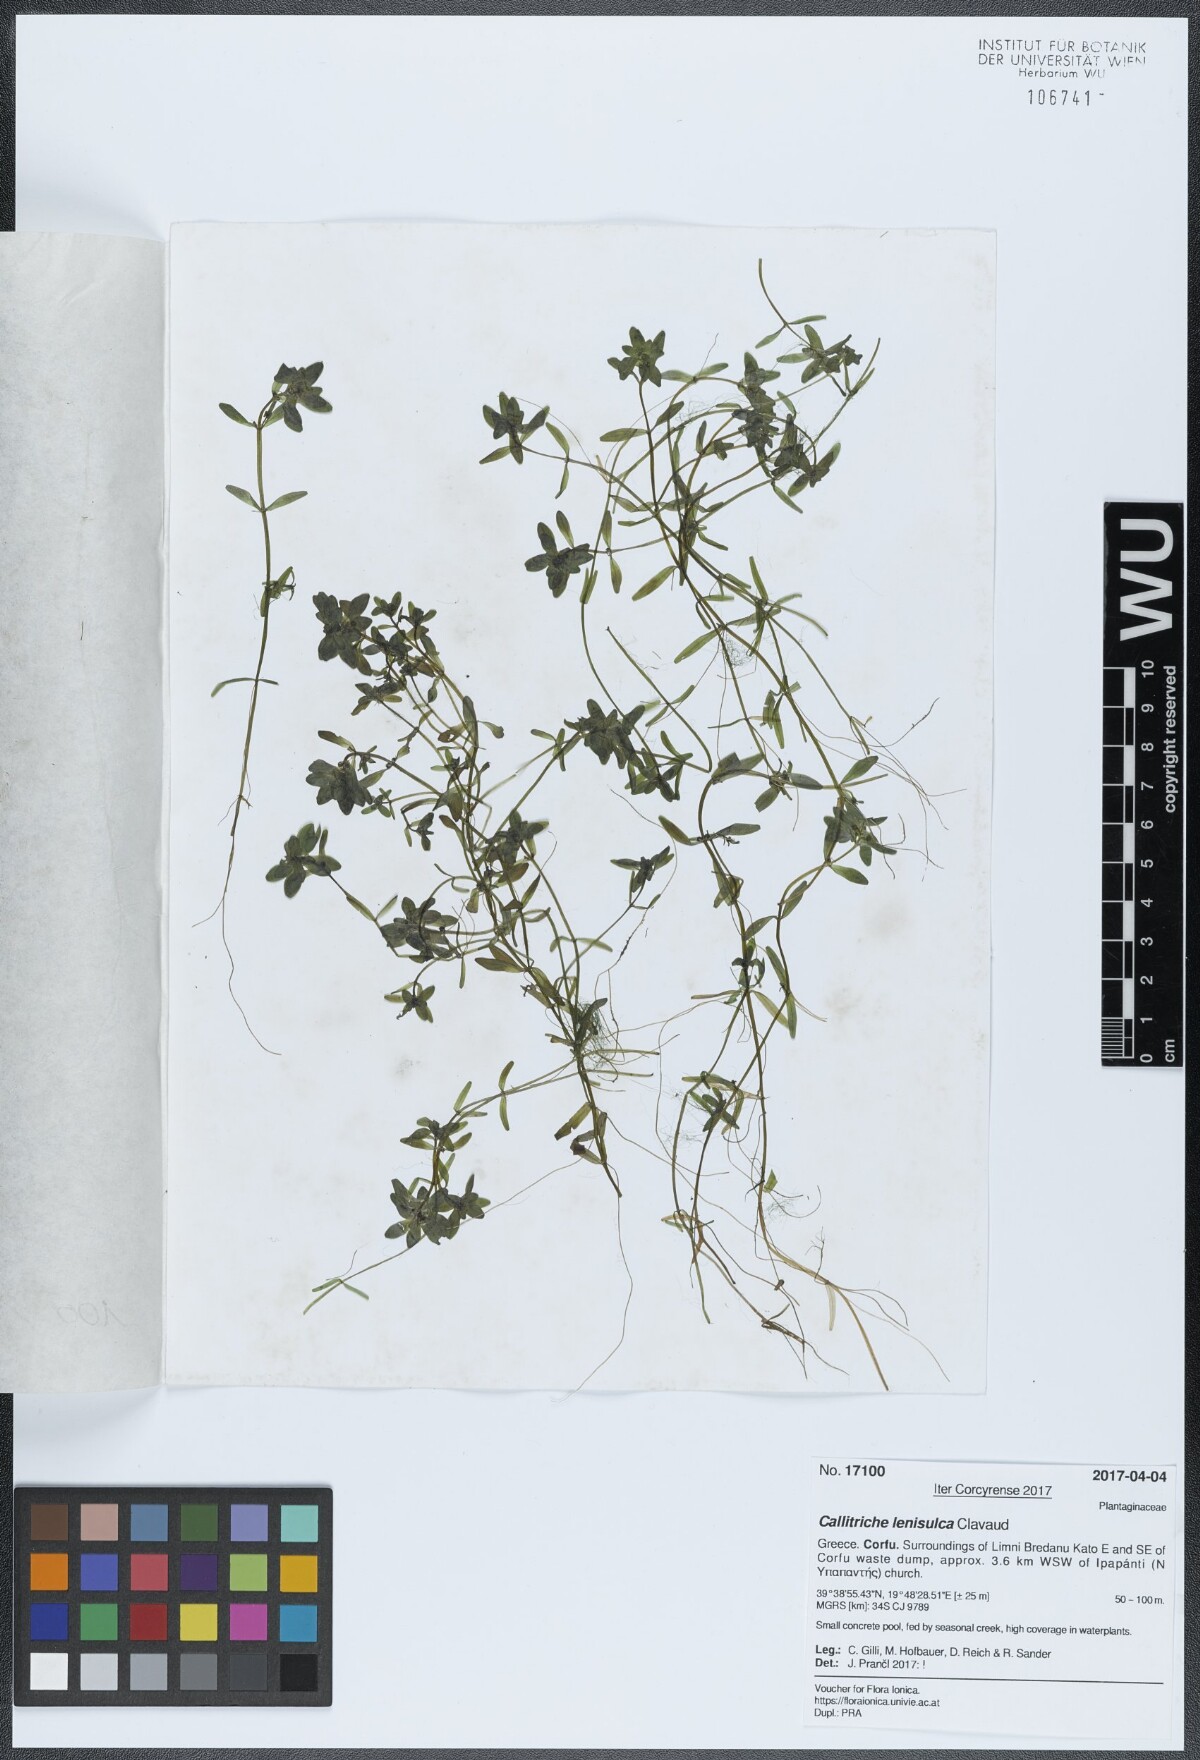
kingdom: Plantae
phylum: Tracheophyta
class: Magnoliopsida
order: Lamiales
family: Plantaginaceae
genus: Callitriche
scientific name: Callitriche lenisulca
